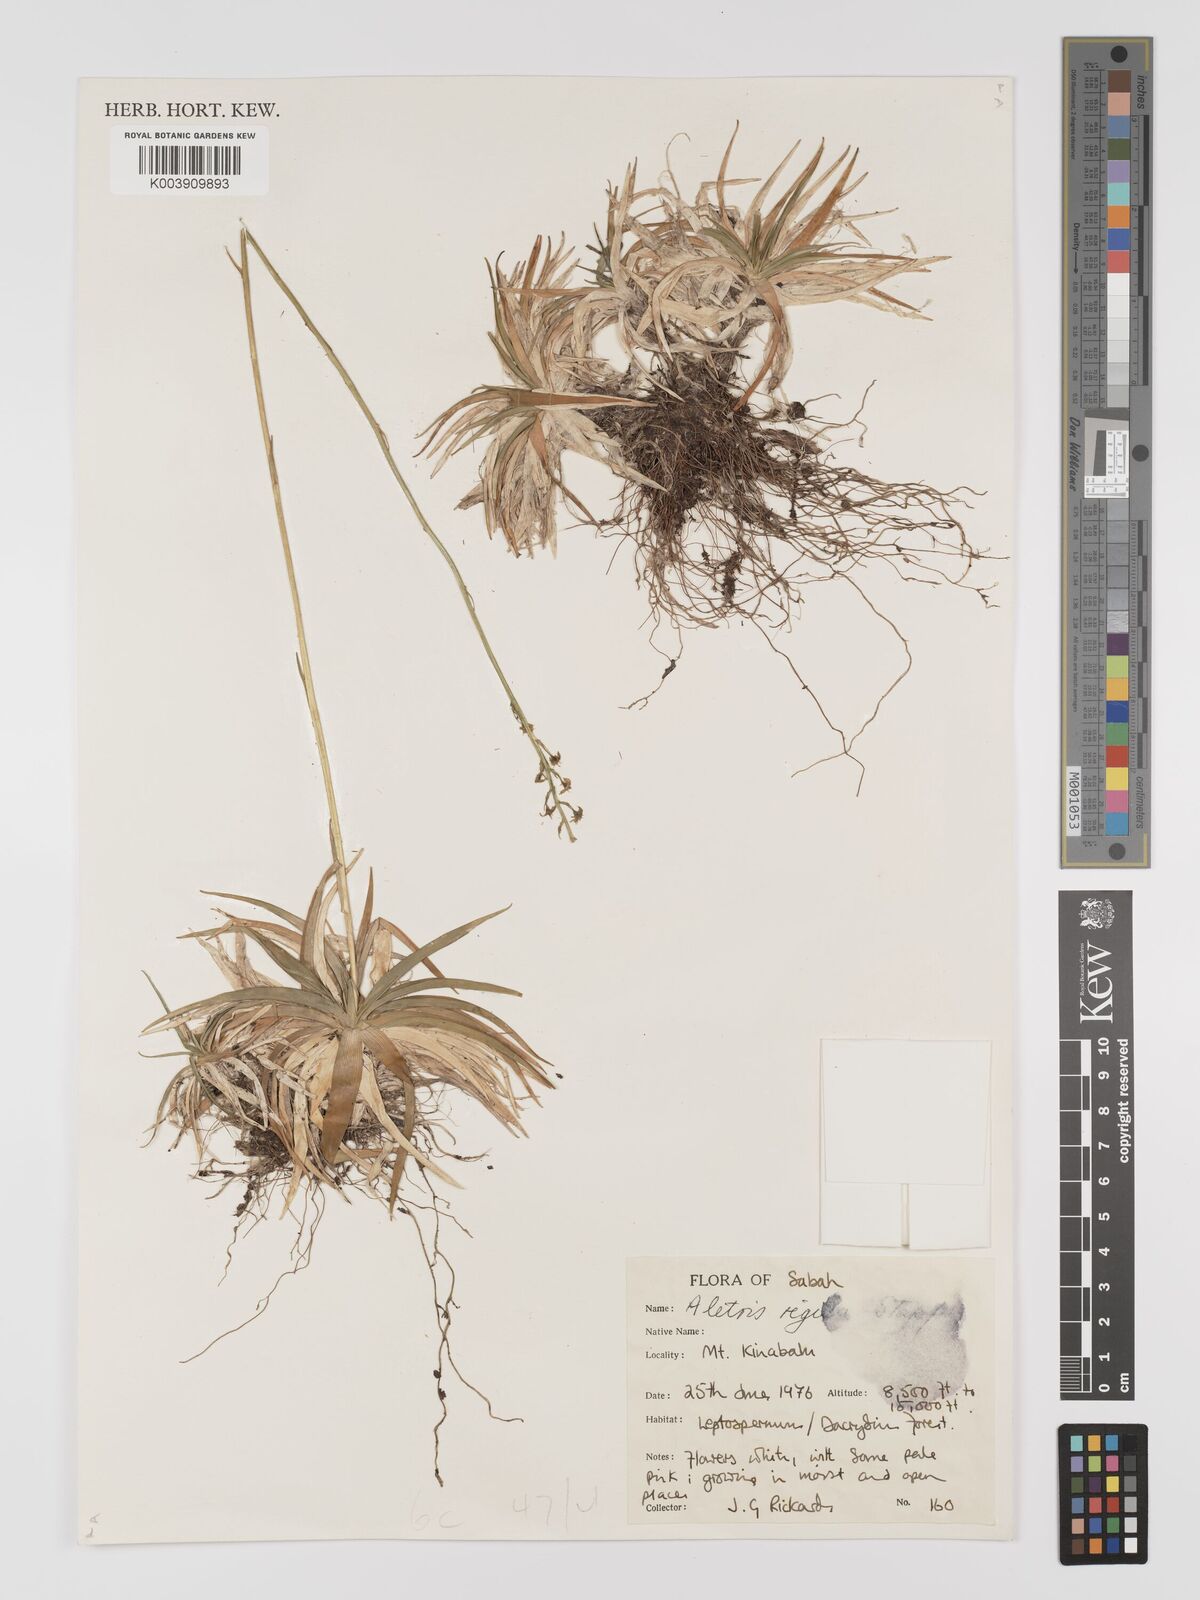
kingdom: Plantae
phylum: Tracheophyta
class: Liliopsida
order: Dioscoreales
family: Nartheciaceae
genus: Aletris
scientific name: Aletris foliolosa
